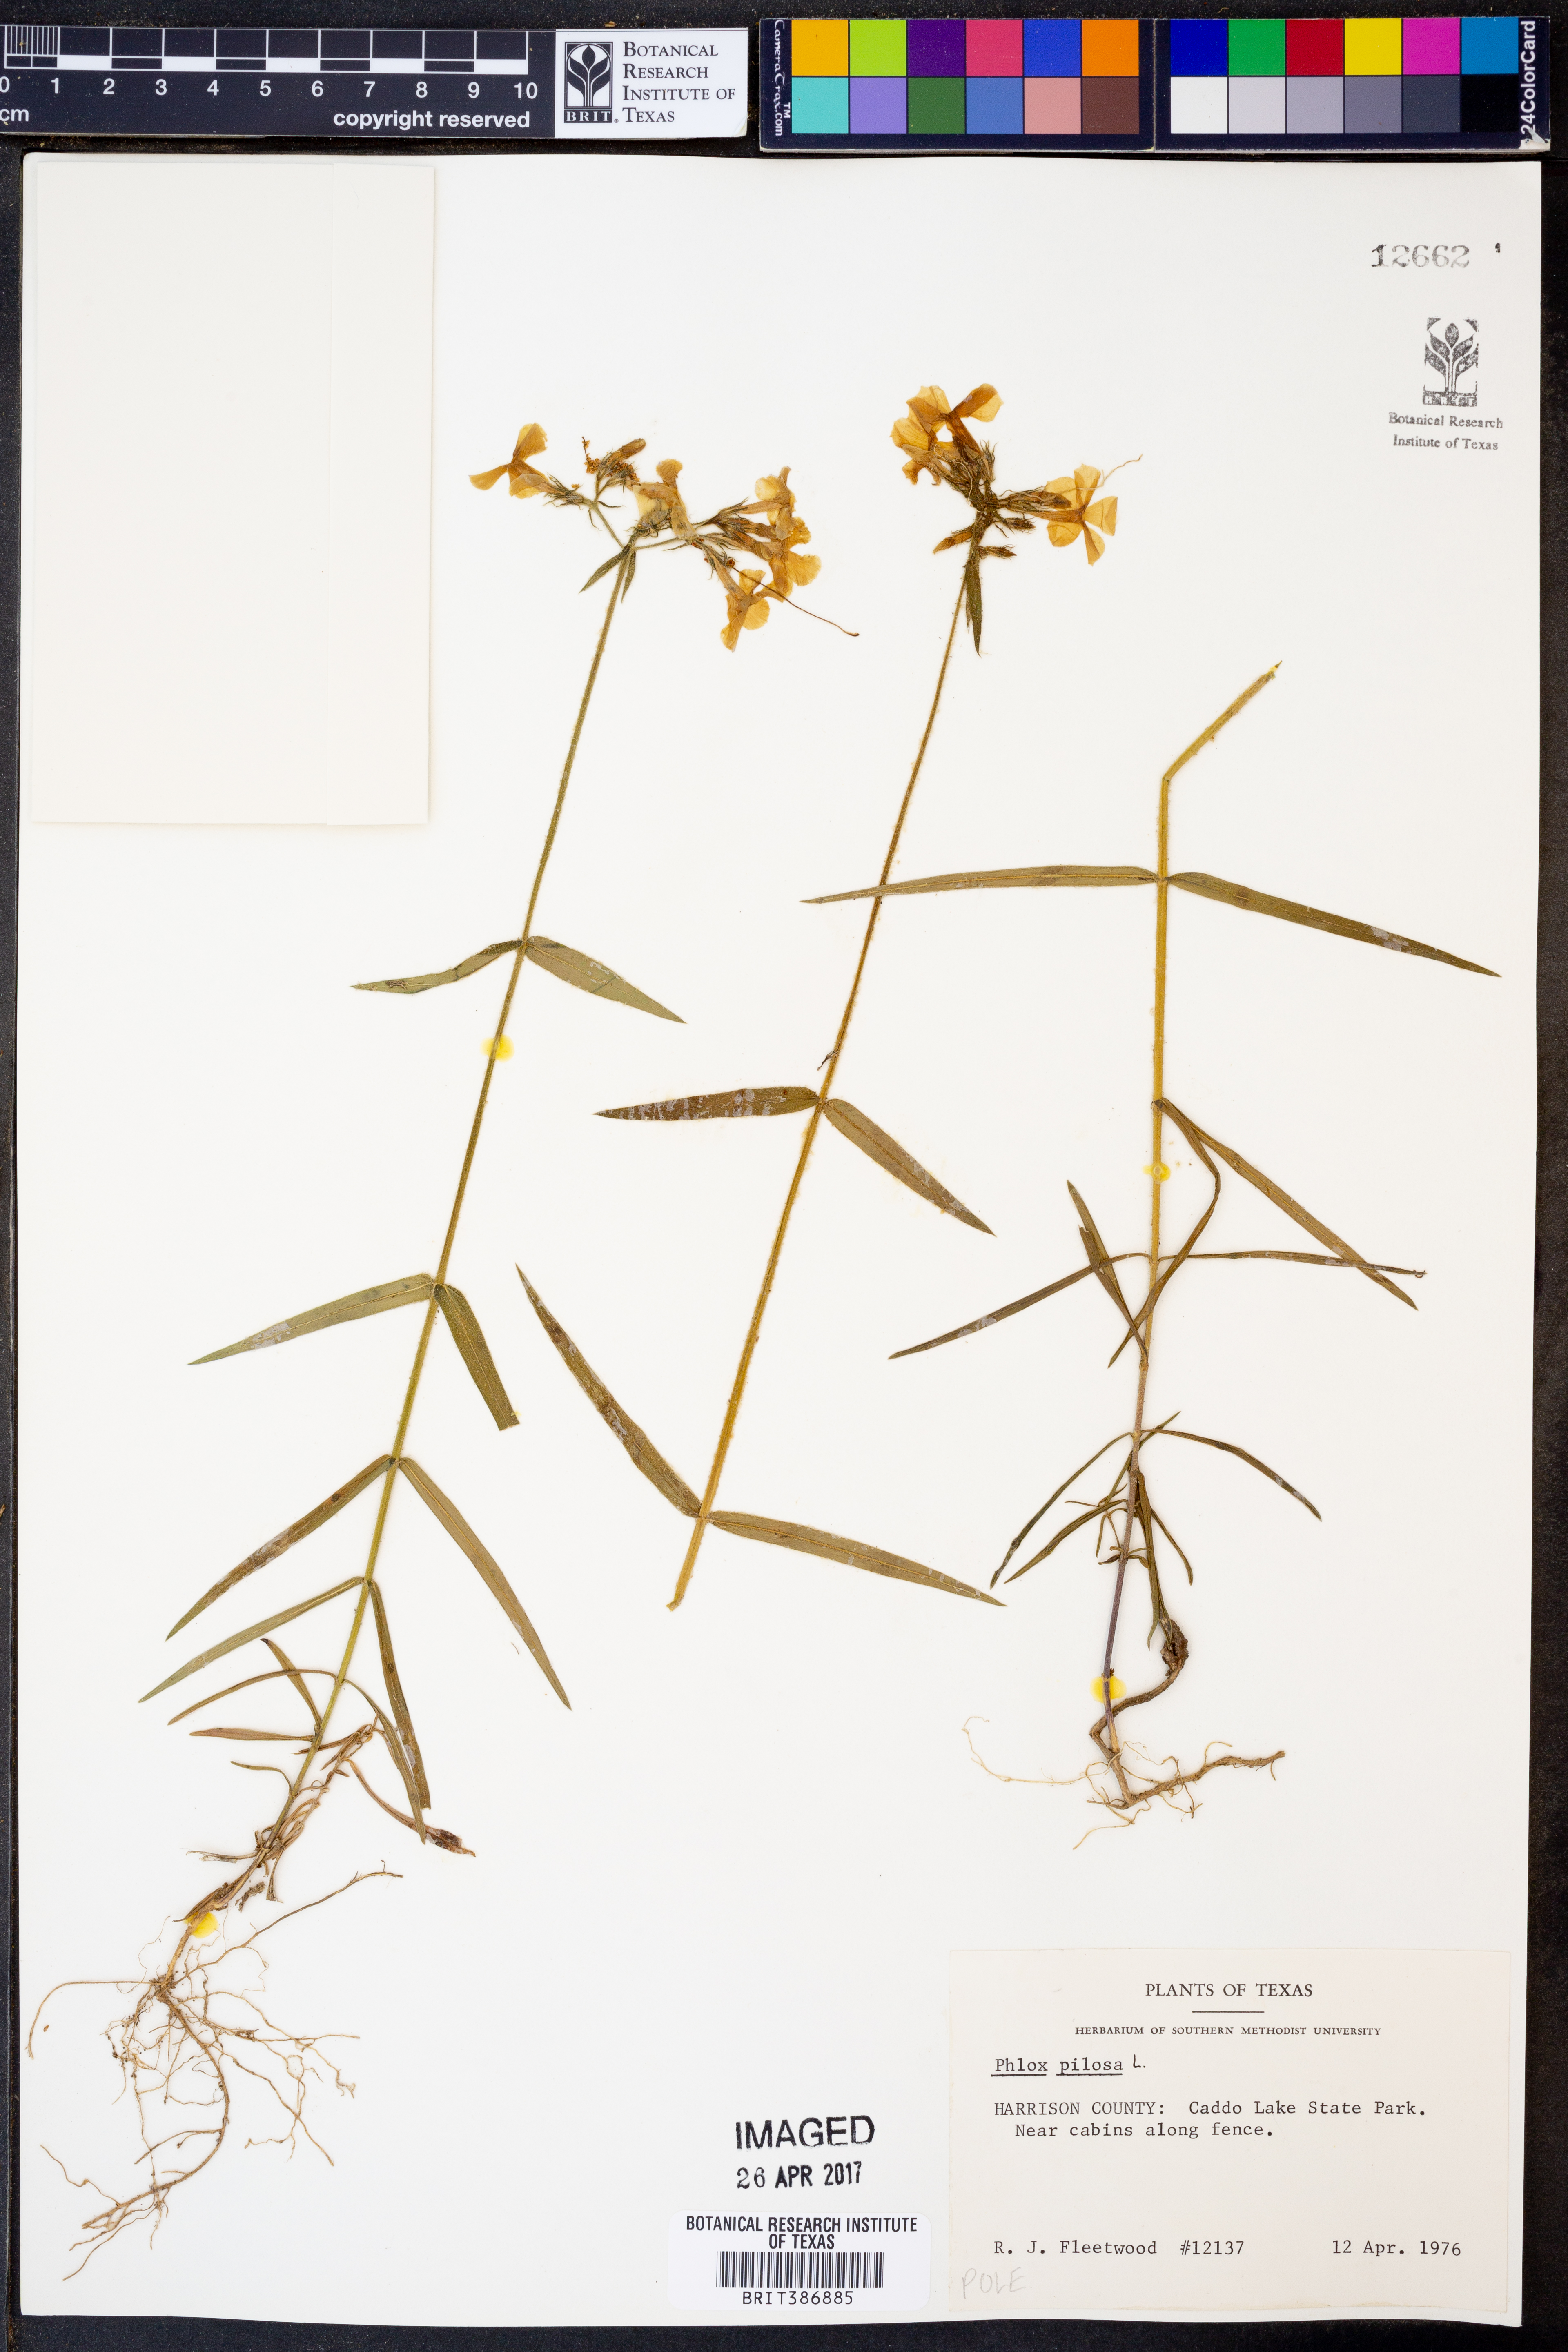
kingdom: Plantae
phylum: Tracheophyta
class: Magnoliopsida
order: Ericales
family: Polemoniaceae
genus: Phlox
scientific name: Phlox pilosa
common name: Prairie phlox
